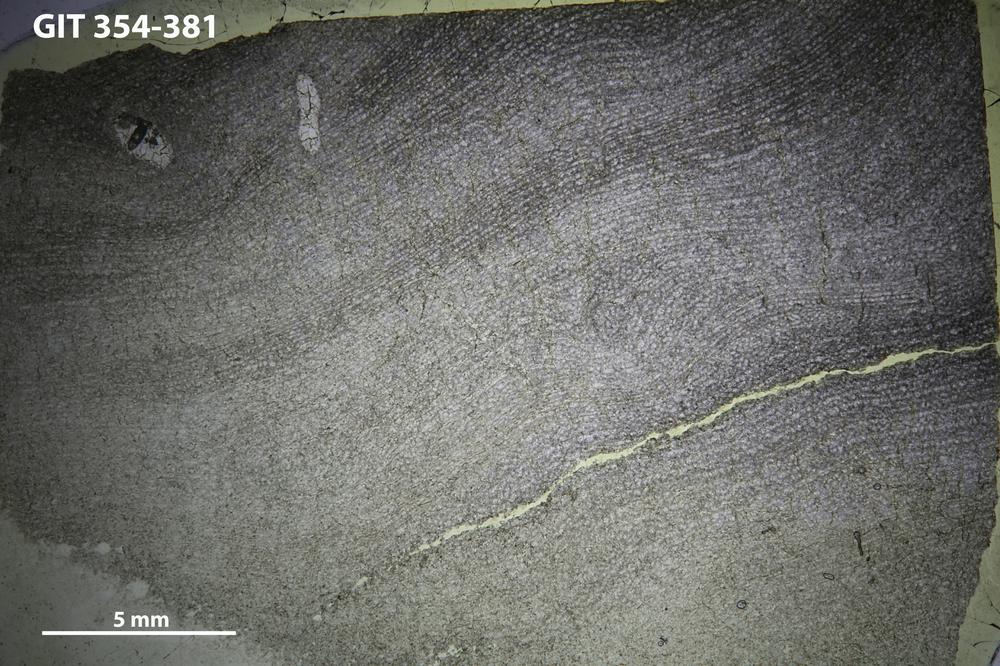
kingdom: Animalia
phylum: Porifera
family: Clathrodictyidae
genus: Clathrodictyon
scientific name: Clathrodictyon kudriavzevi
